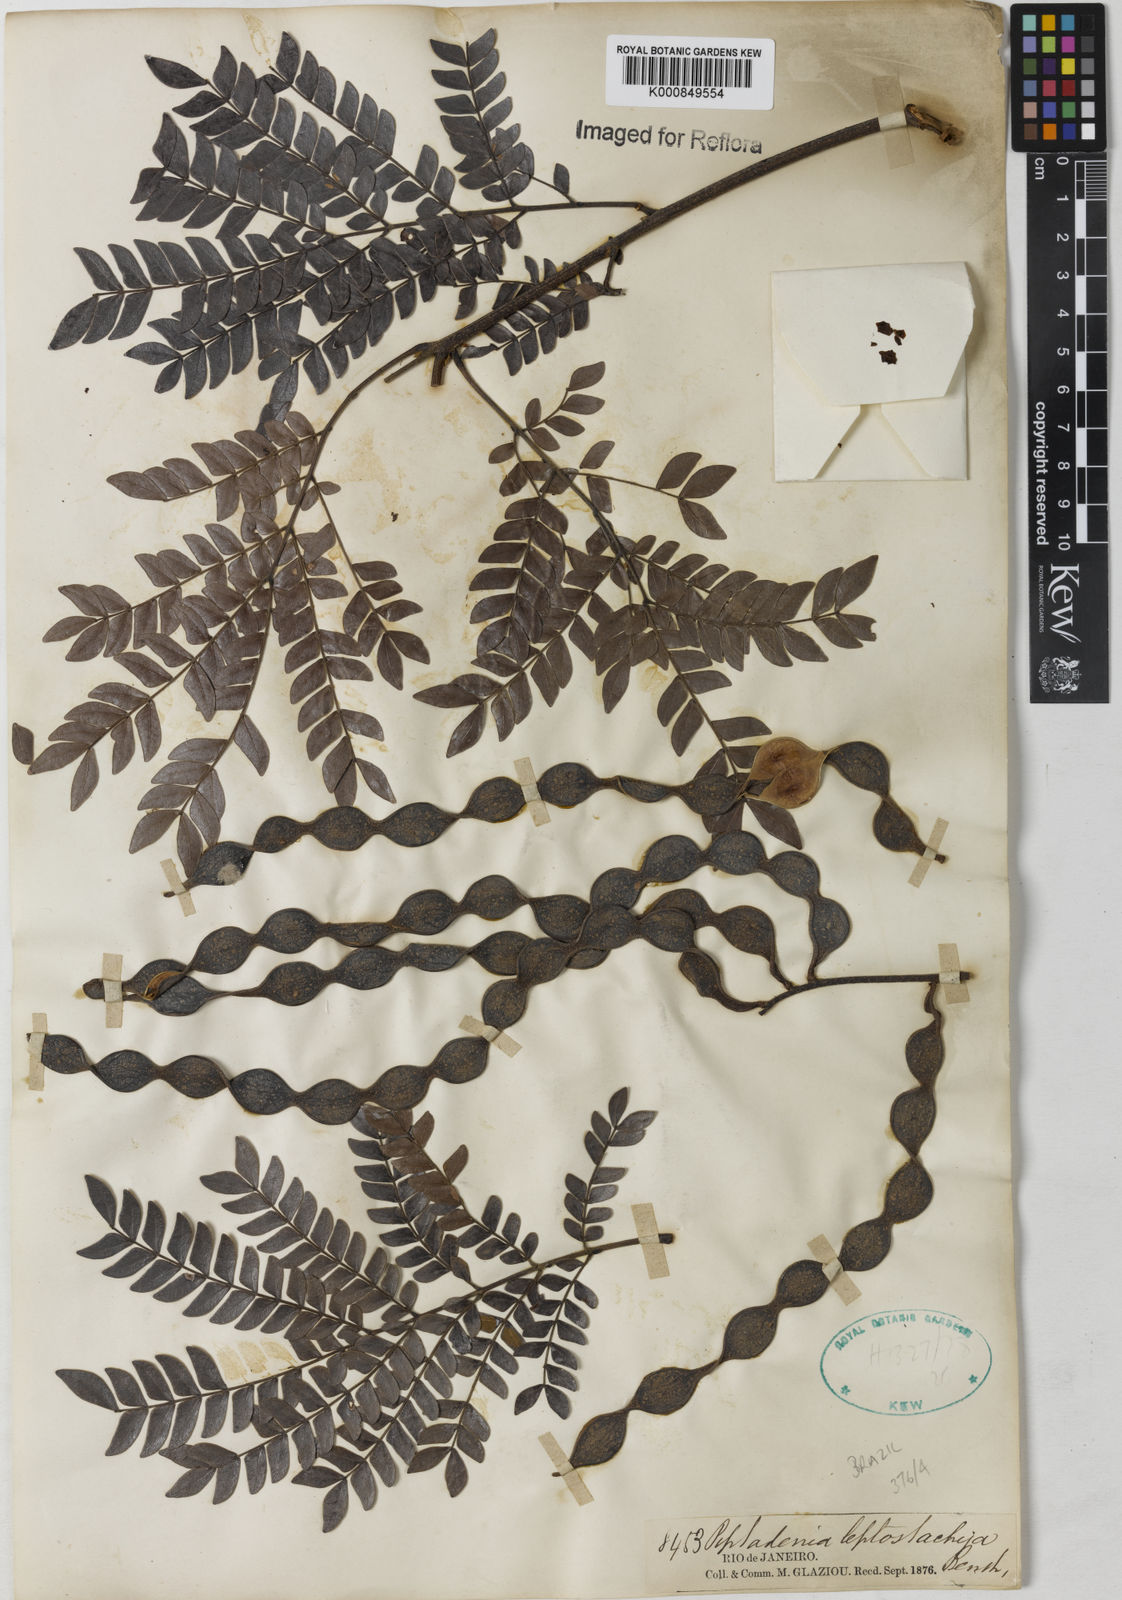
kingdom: Plantae
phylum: Tracheophyta
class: Magnoliopsida
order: Fabales
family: Fabaceae
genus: Pseudopiptadenia
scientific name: Pseudopiptadenia leptostachya
